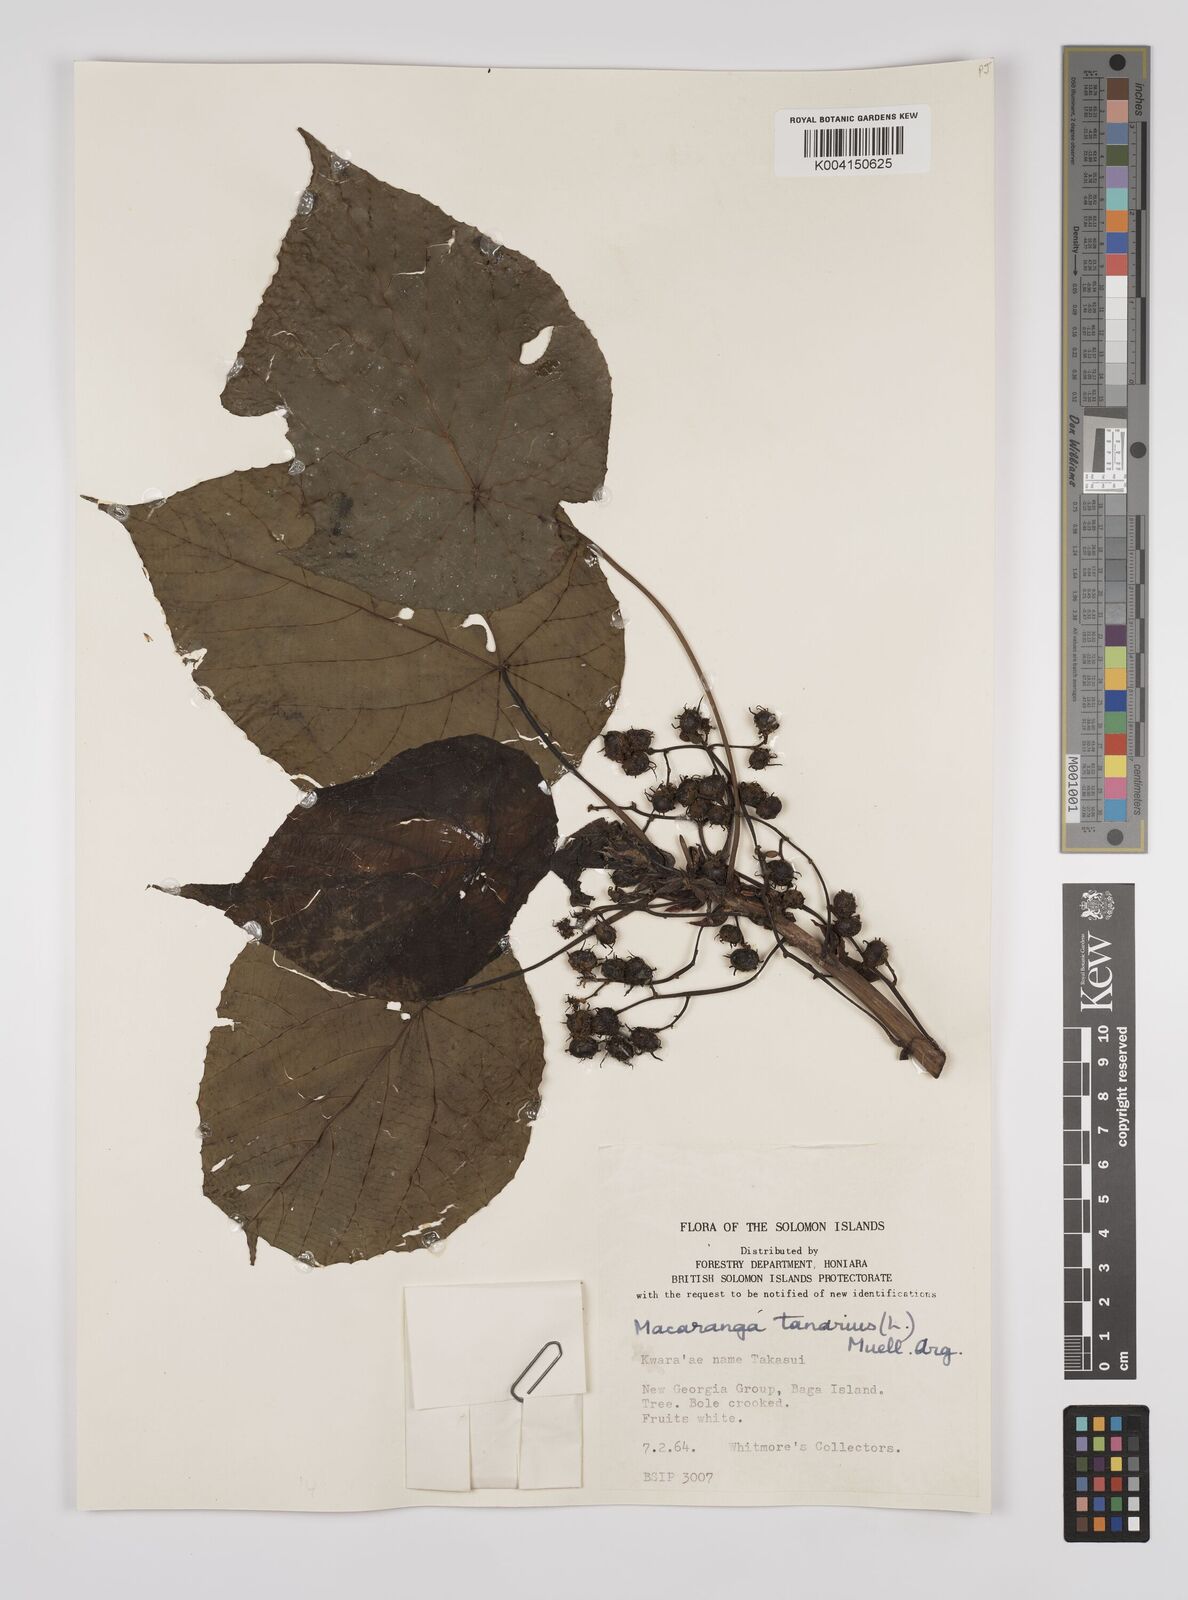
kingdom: Plantae
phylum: Tracheophyta
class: Magnoliopsida
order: Malpighiales
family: Euphorbiaceae
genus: Macaranga
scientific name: Macaranga tanarius
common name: Parasol leaf tree
